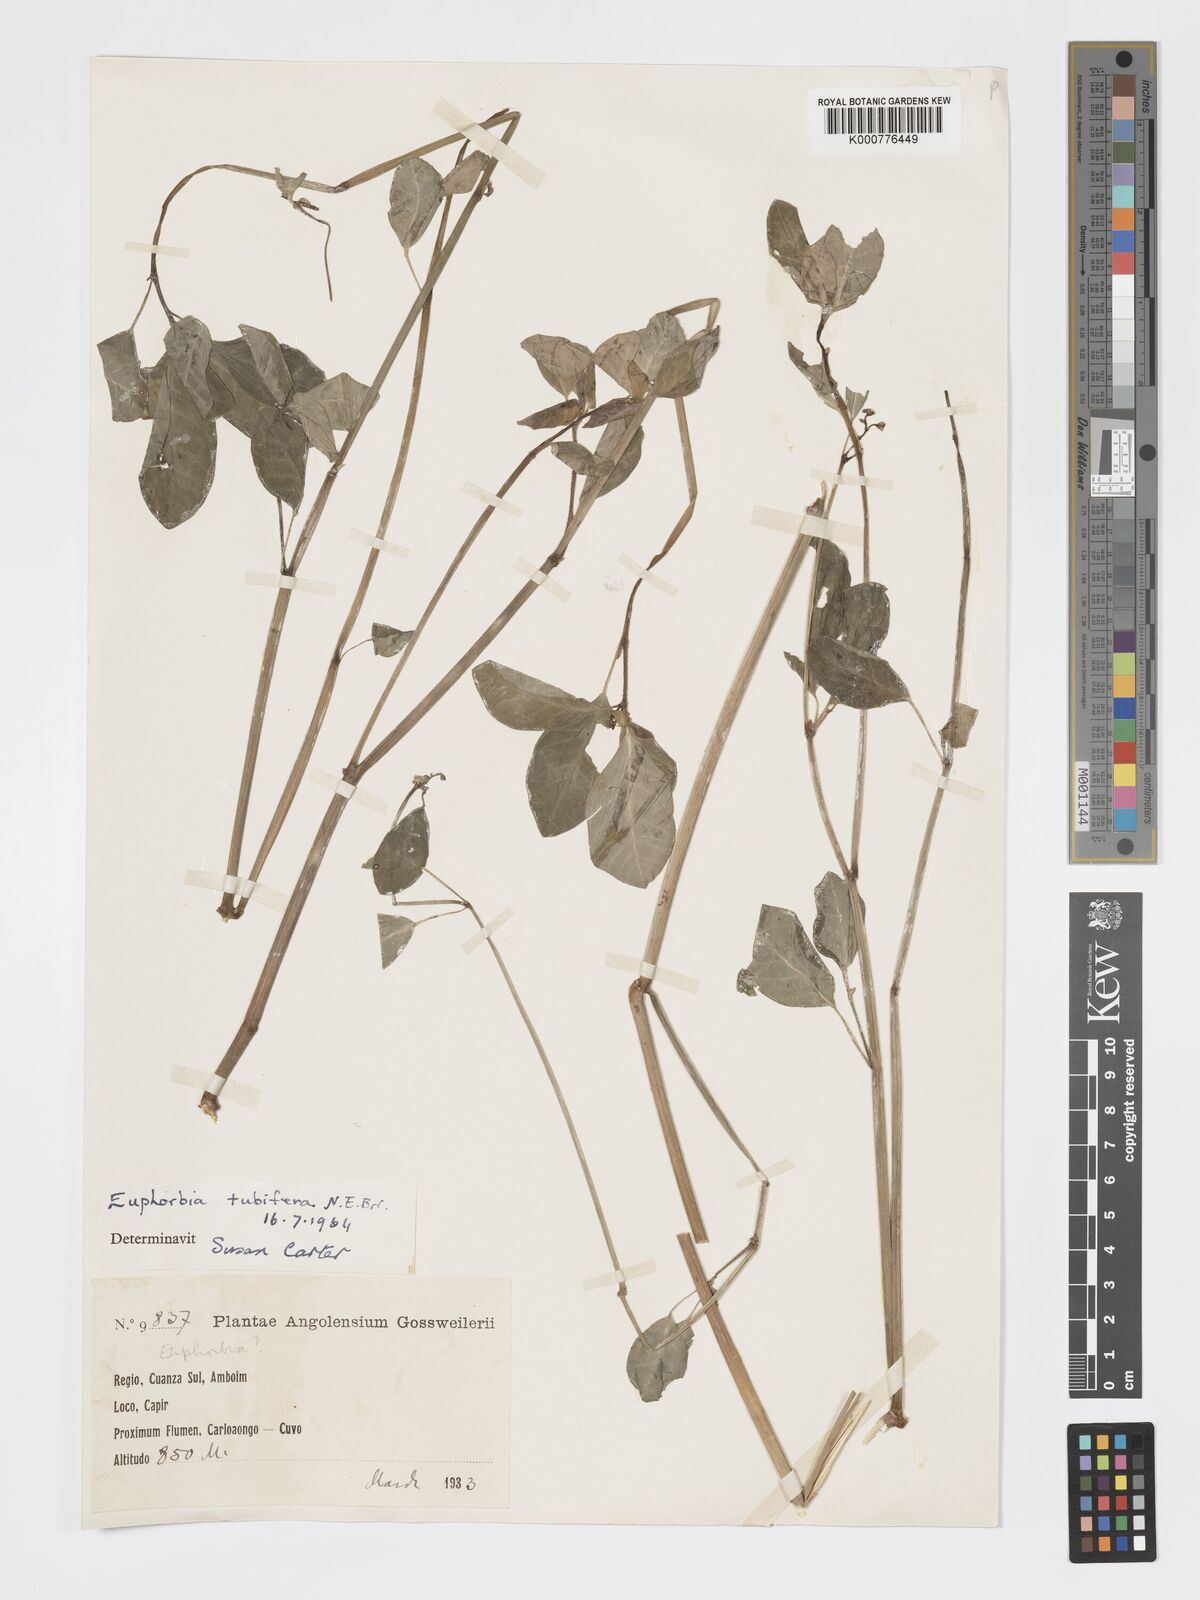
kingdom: Plantae
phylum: Tracheophyta
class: Magnoliopsida
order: Malpighiales
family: Euphorbiaceae
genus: Euphorbia
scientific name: Euphorbia tuberifera
